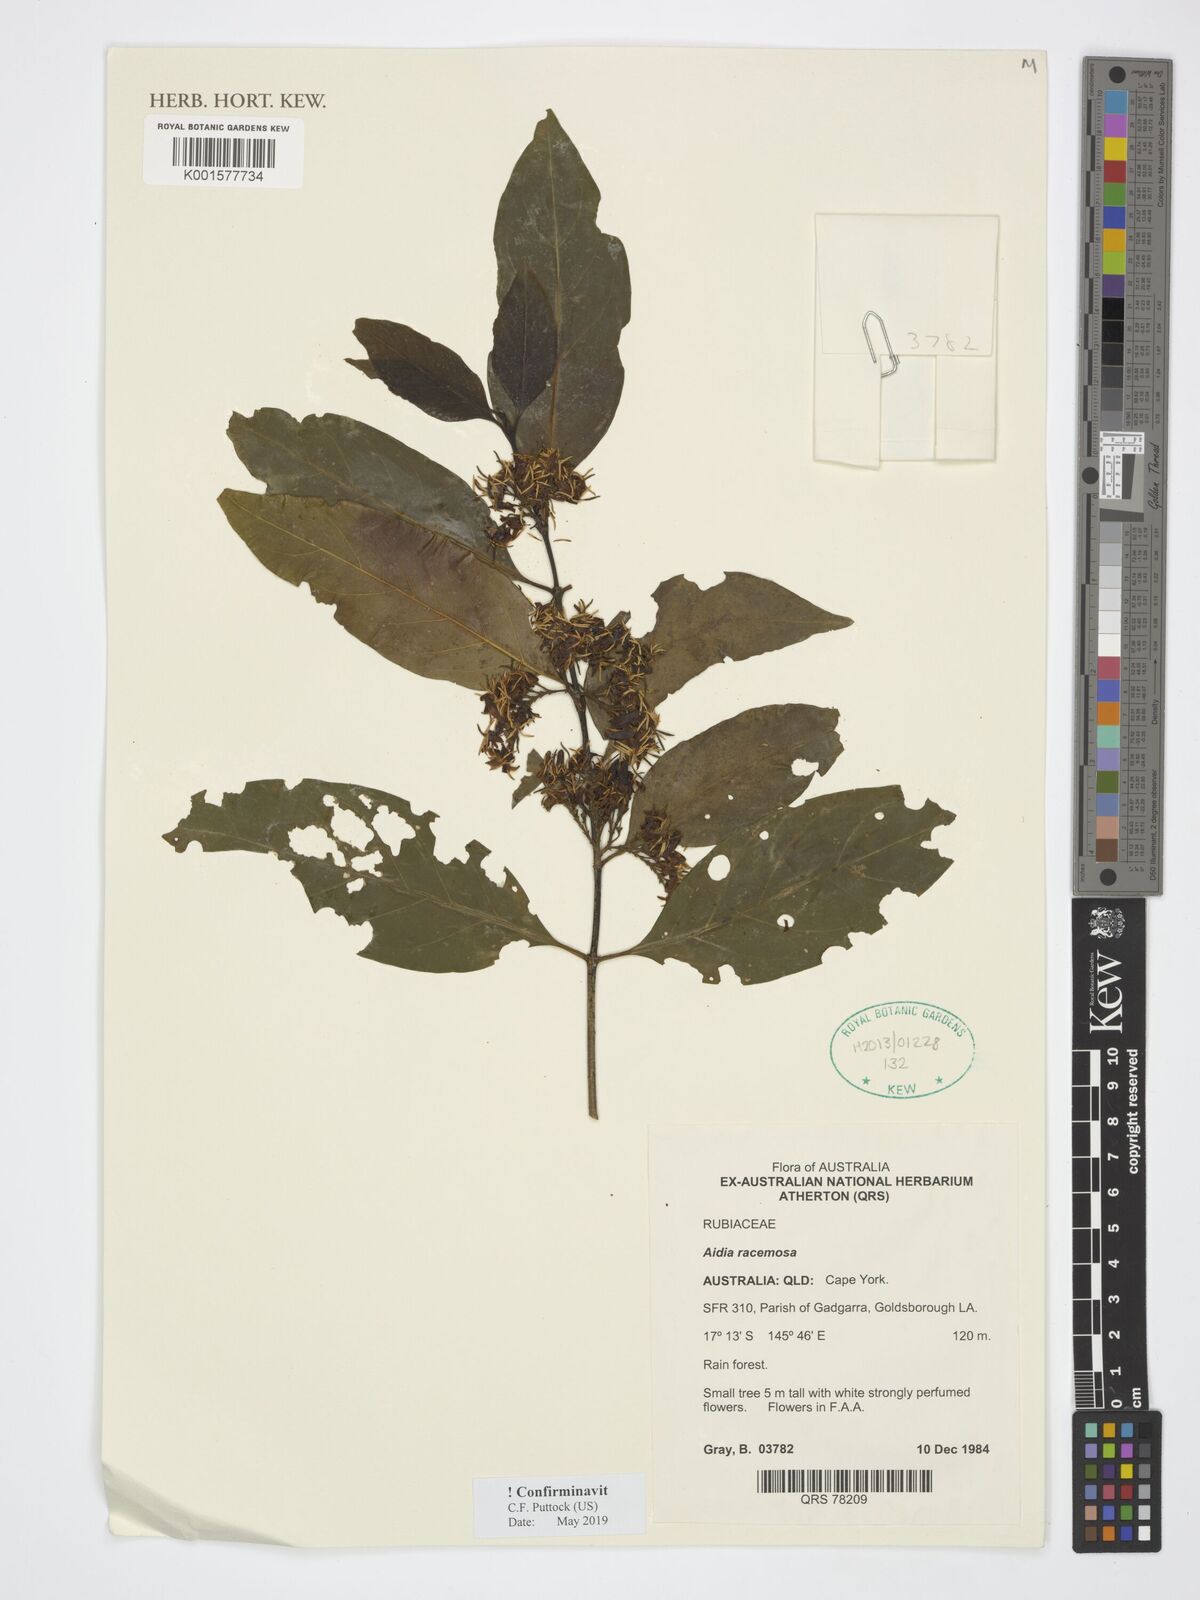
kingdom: Plantae
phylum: Tracheophyta
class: Magnoliopsida
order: Gentianales
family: Rubiaceae
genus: Aidia
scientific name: Aidia racemosa
